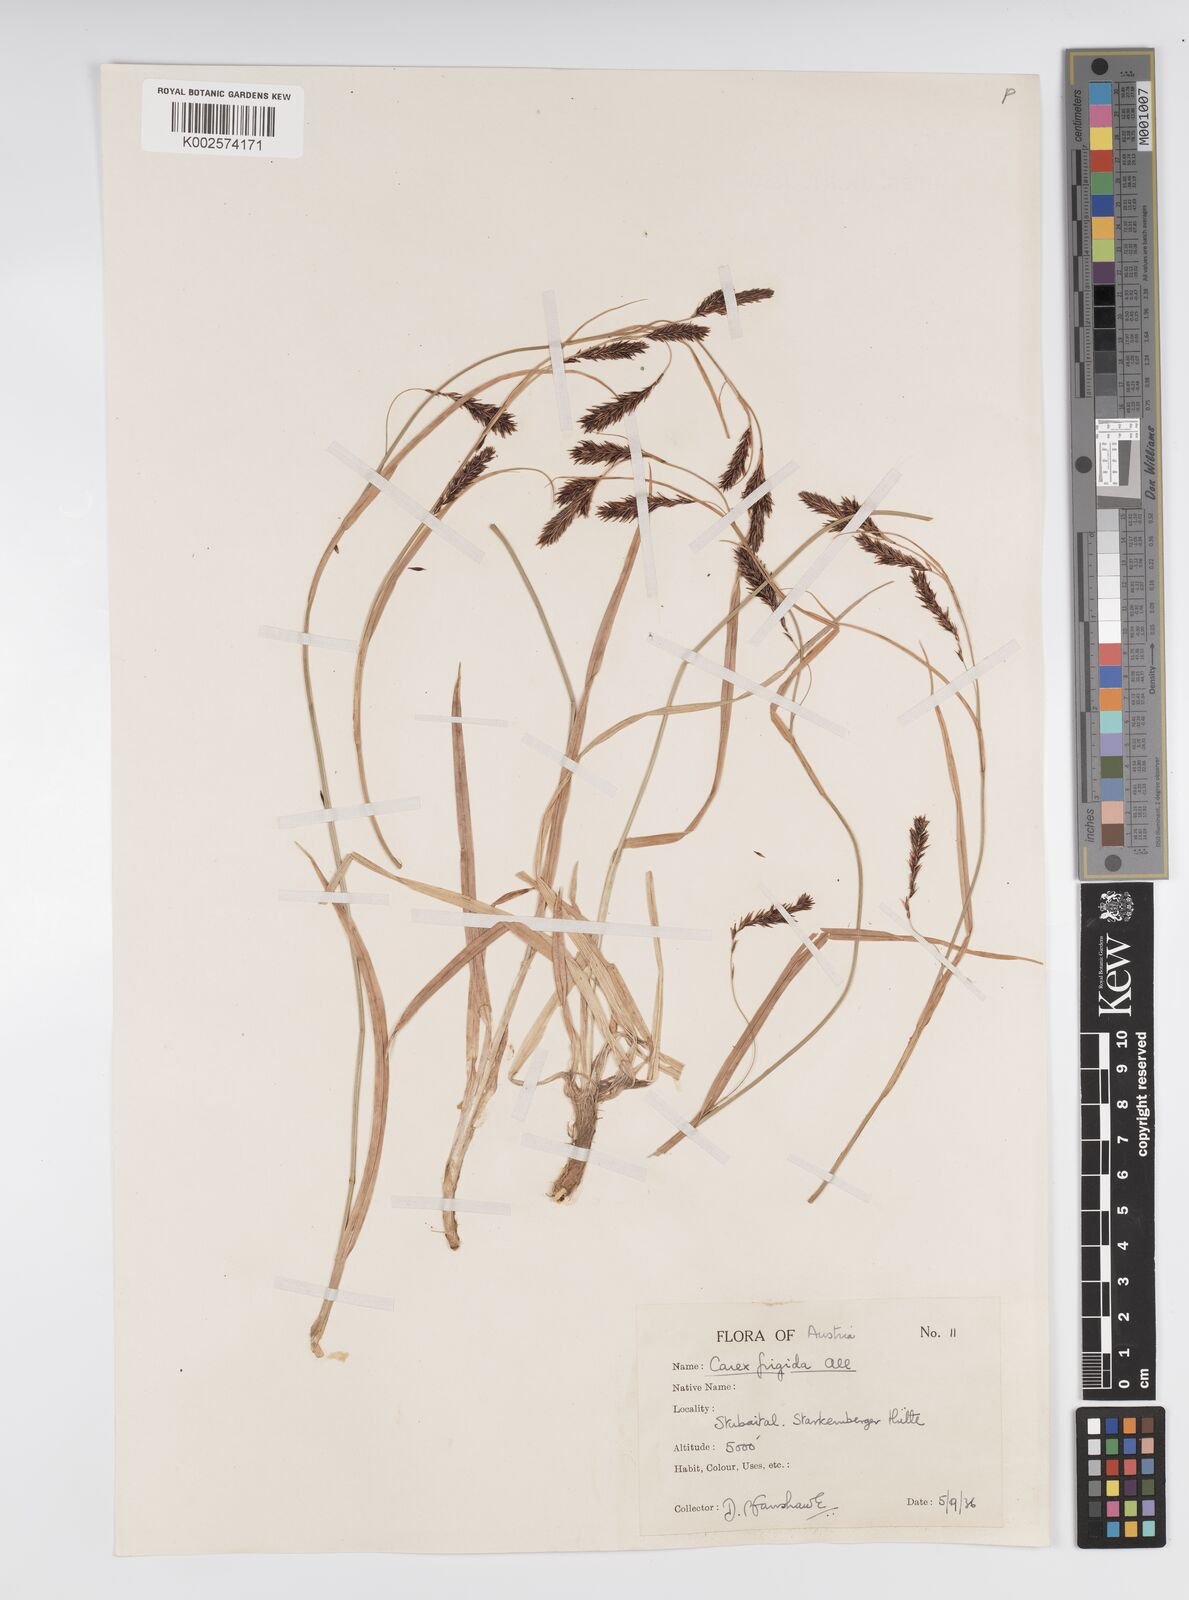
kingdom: Plantae
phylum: Tracheophyta
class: Liliopsida
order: Poales
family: Cyperaceae
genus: Carex
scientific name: Carex frigida
